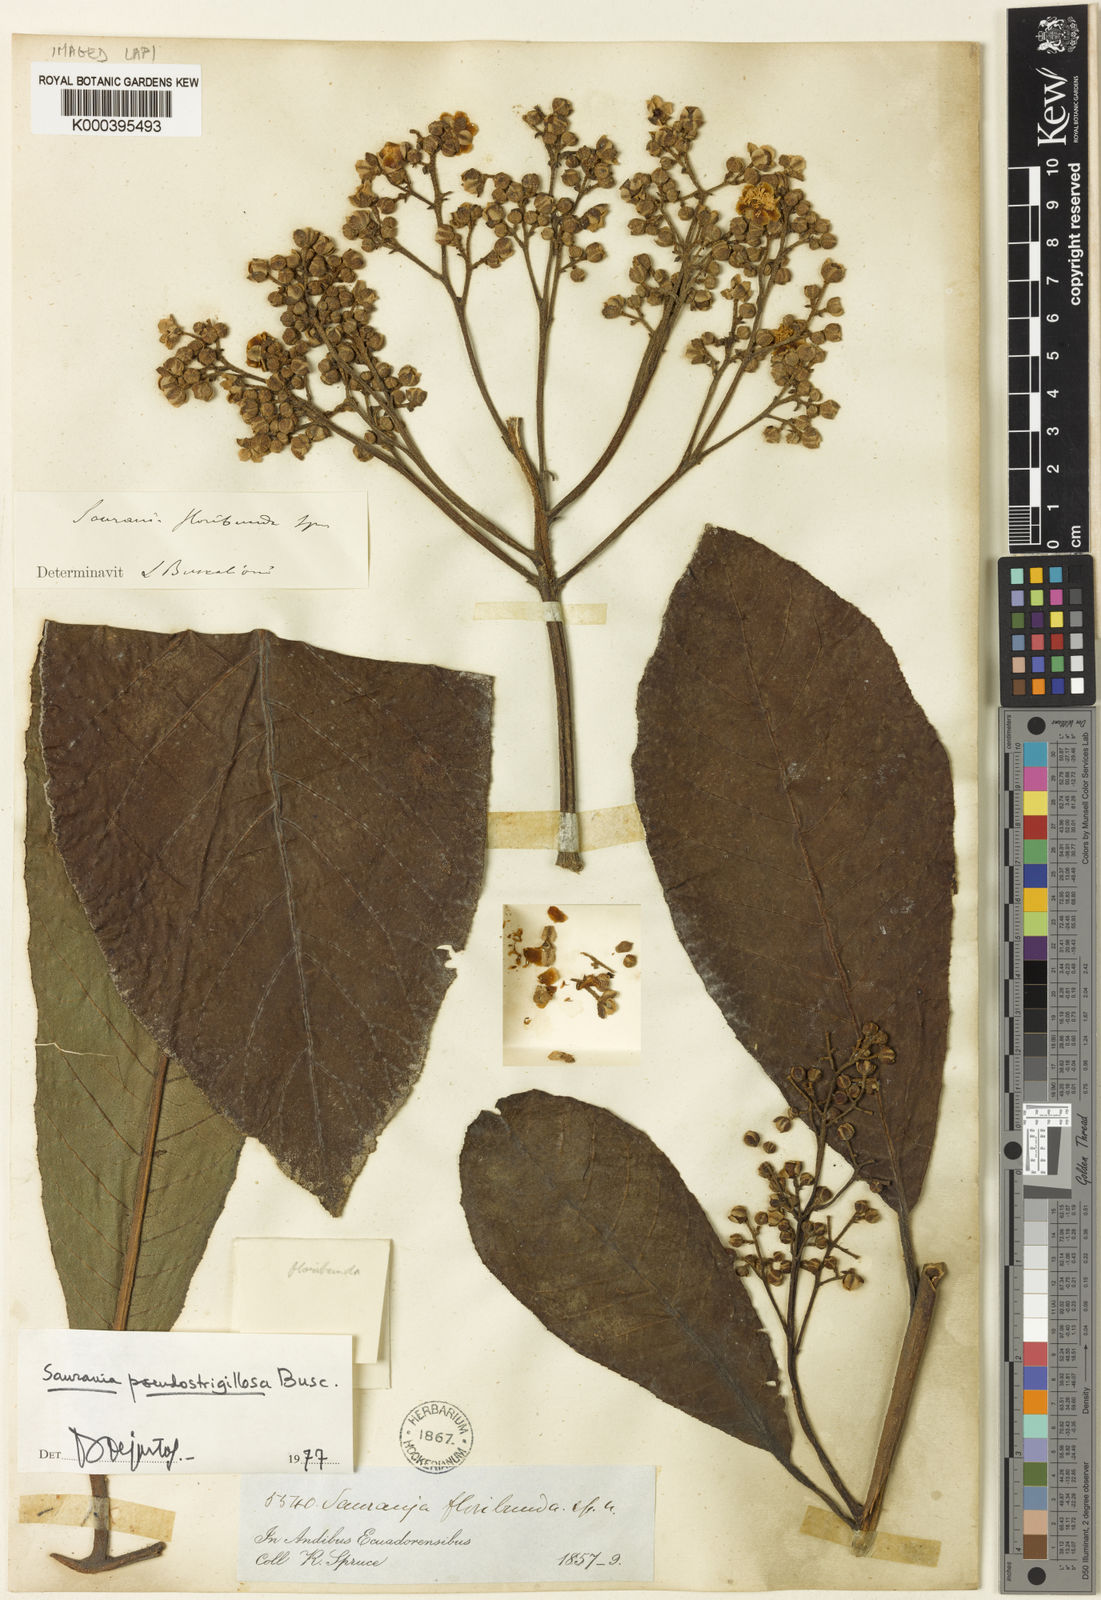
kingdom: Plantae
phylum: Tracheophyta
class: Magnoliopsida
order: Ericales
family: Actinidiaceae
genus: Saurauia
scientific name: Saurauia pseudostrigillosa
